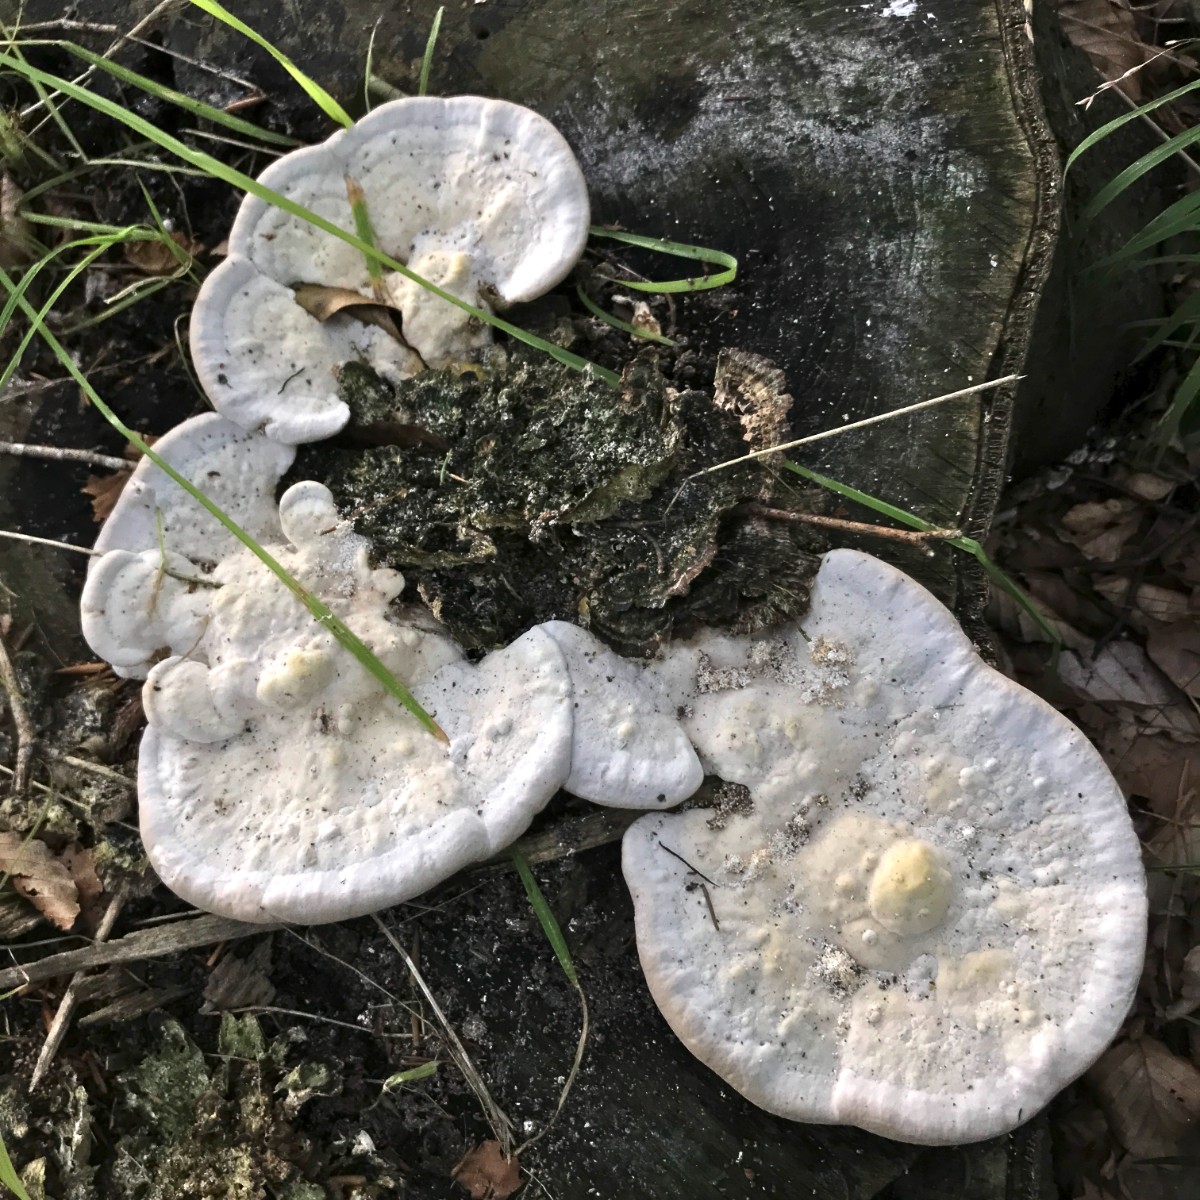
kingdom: Fungi
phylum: Basidiomycota
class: Agaricomycetes
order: Polyporales
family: Polyporaceae
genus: Trametes
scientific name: Trametes gibbosa
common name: puklet læderporesvamp
